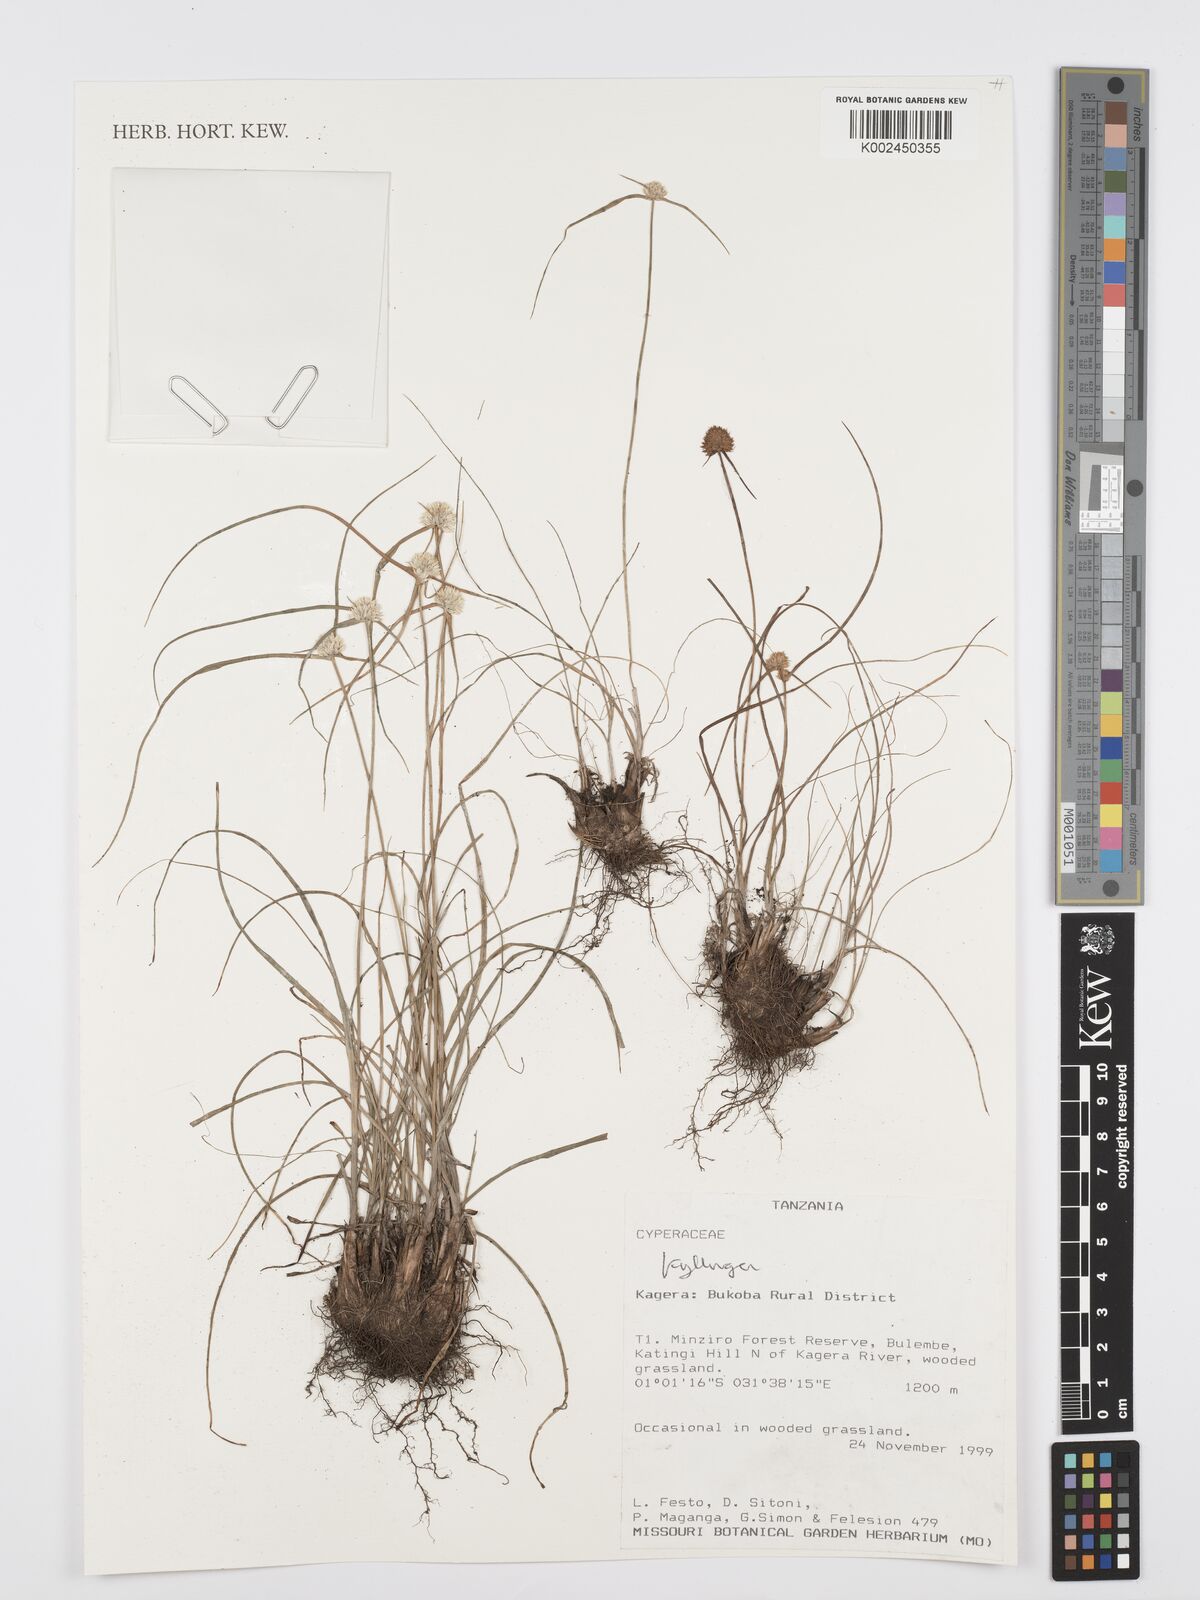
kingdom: Plantae
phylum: Tracheophyta
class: Liliopsida
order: Poales
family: Cyperaceae
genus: Cyperus
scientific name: Cyperus
